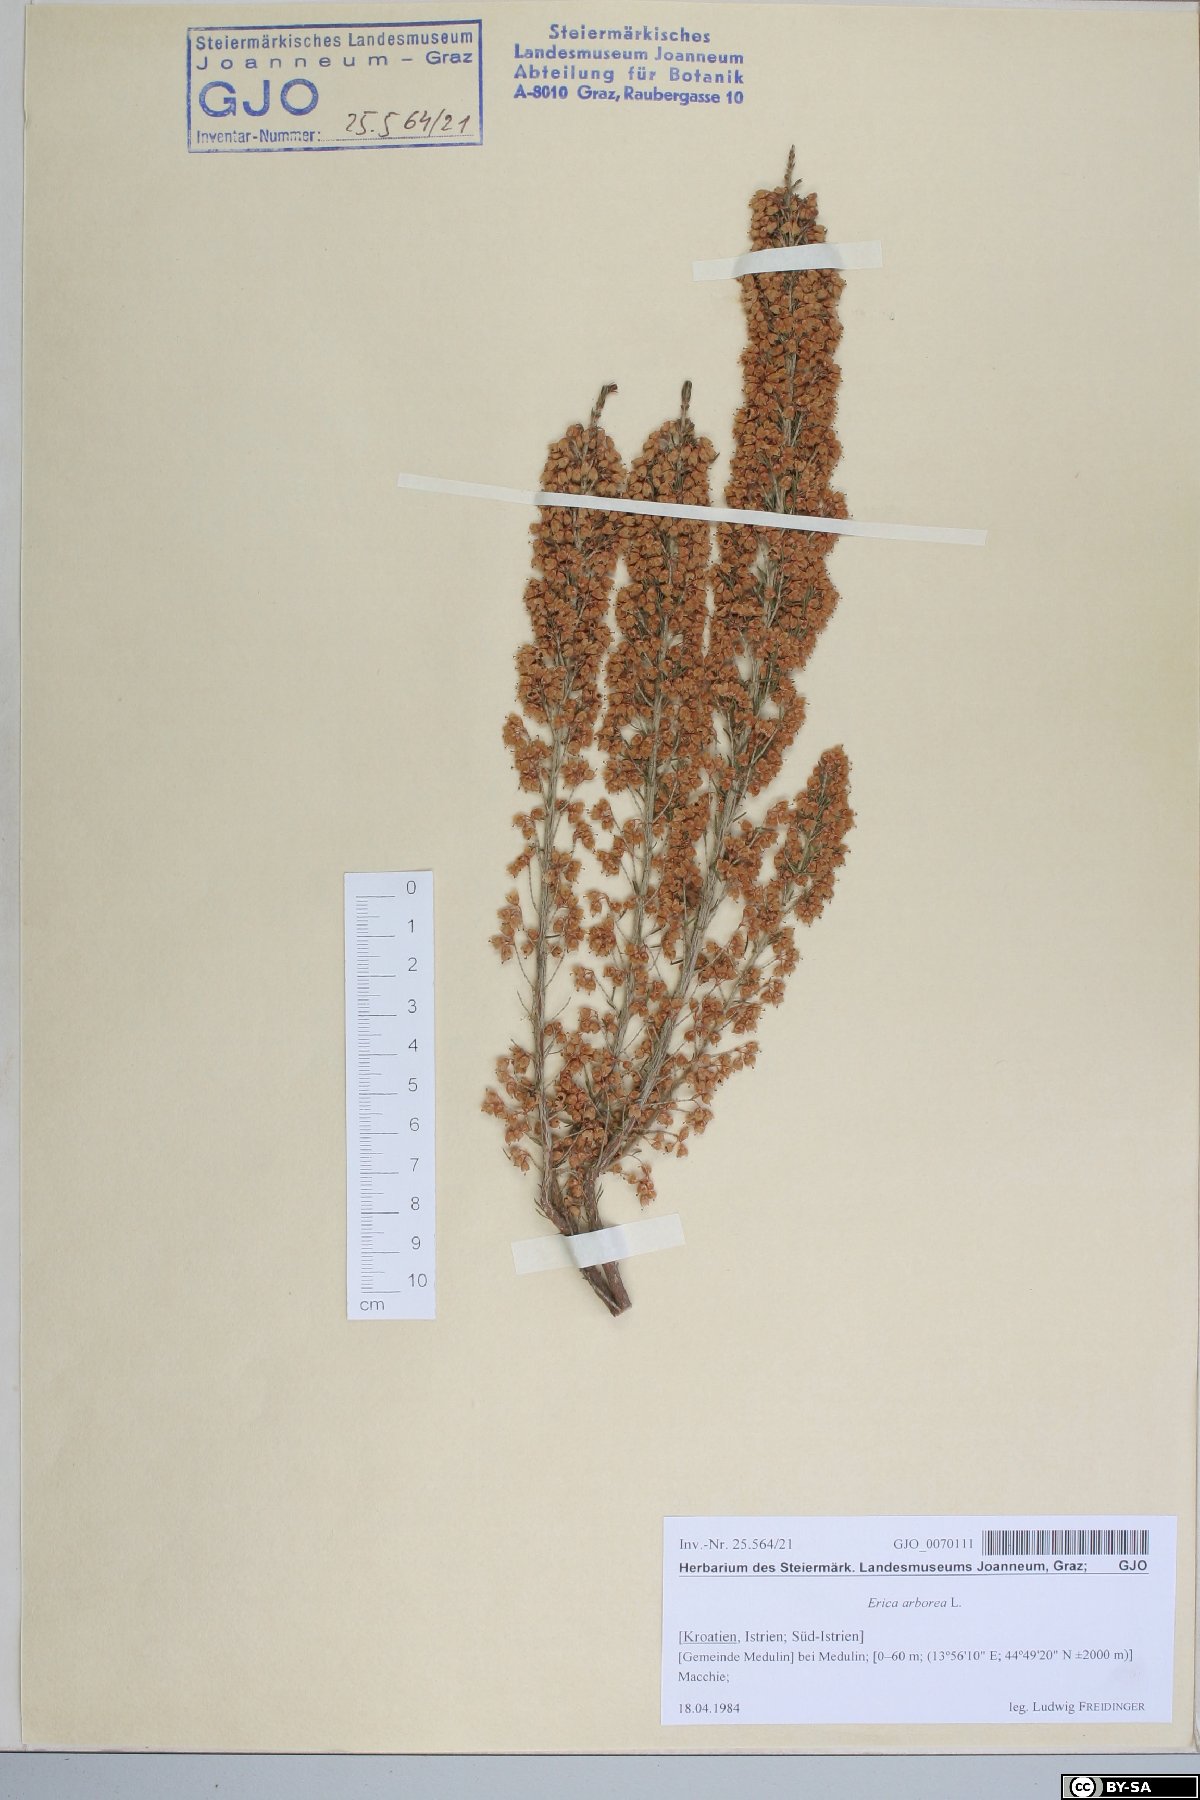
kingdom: Plantae
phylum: Tracheophyta
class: Magnoliopsida
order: Ericales
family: Ericaceae
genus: Erica
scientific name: Erica arborea
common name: Tree heath
